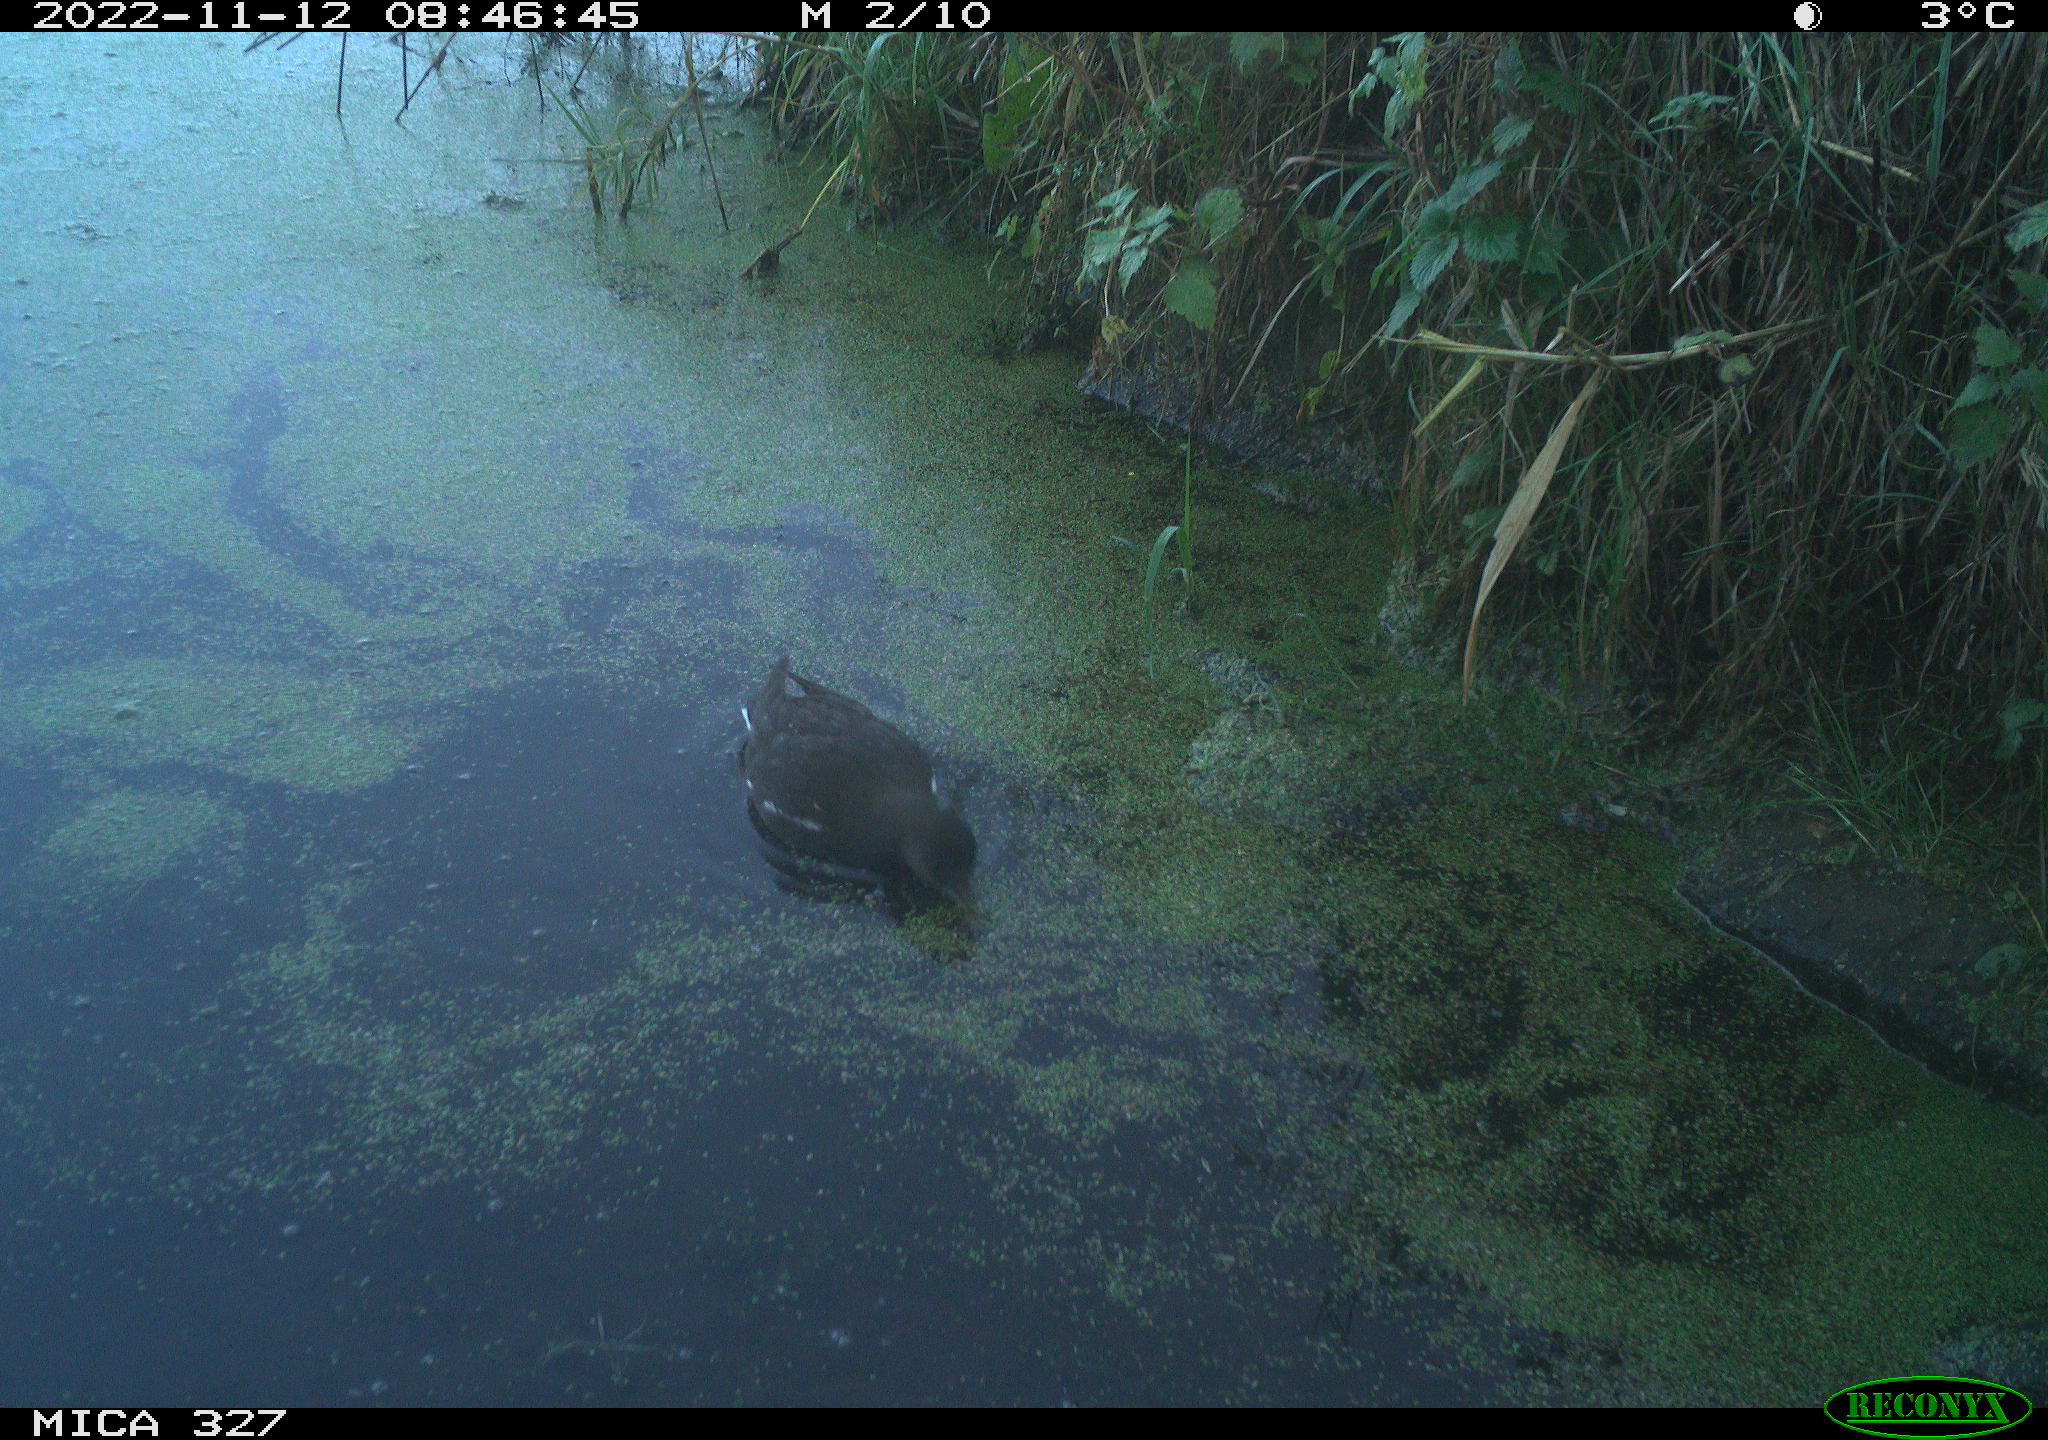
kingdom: Animalia
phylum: Chordata
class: Aves
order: Gruiformes
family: Rallidae
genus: Gallinula
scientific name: Gallinula chloropus
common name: Common moorhen
